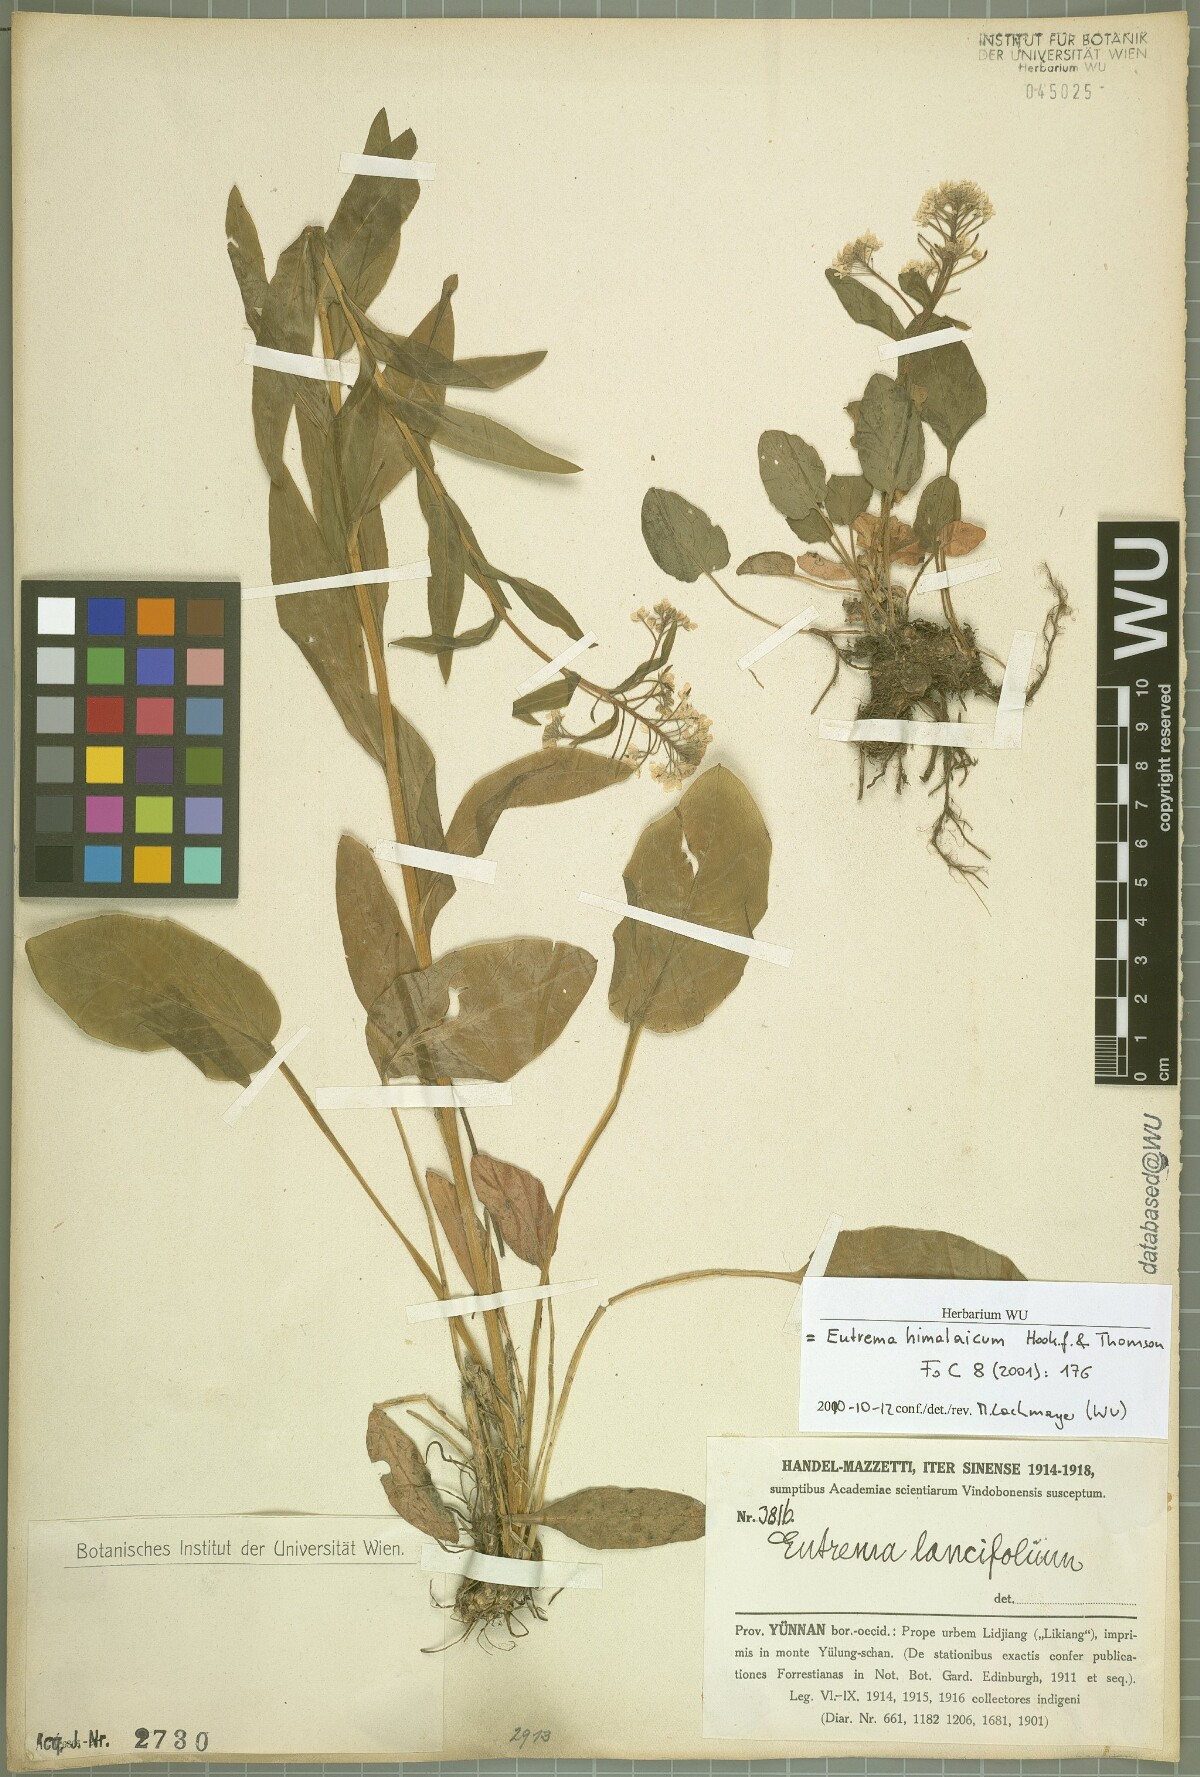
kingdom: Plantae
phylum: Tracheophyta
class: Magnoliopsida
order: Brassicales
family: Brassicaceae
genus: Eutrema
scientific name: Eutrema himalaicum
